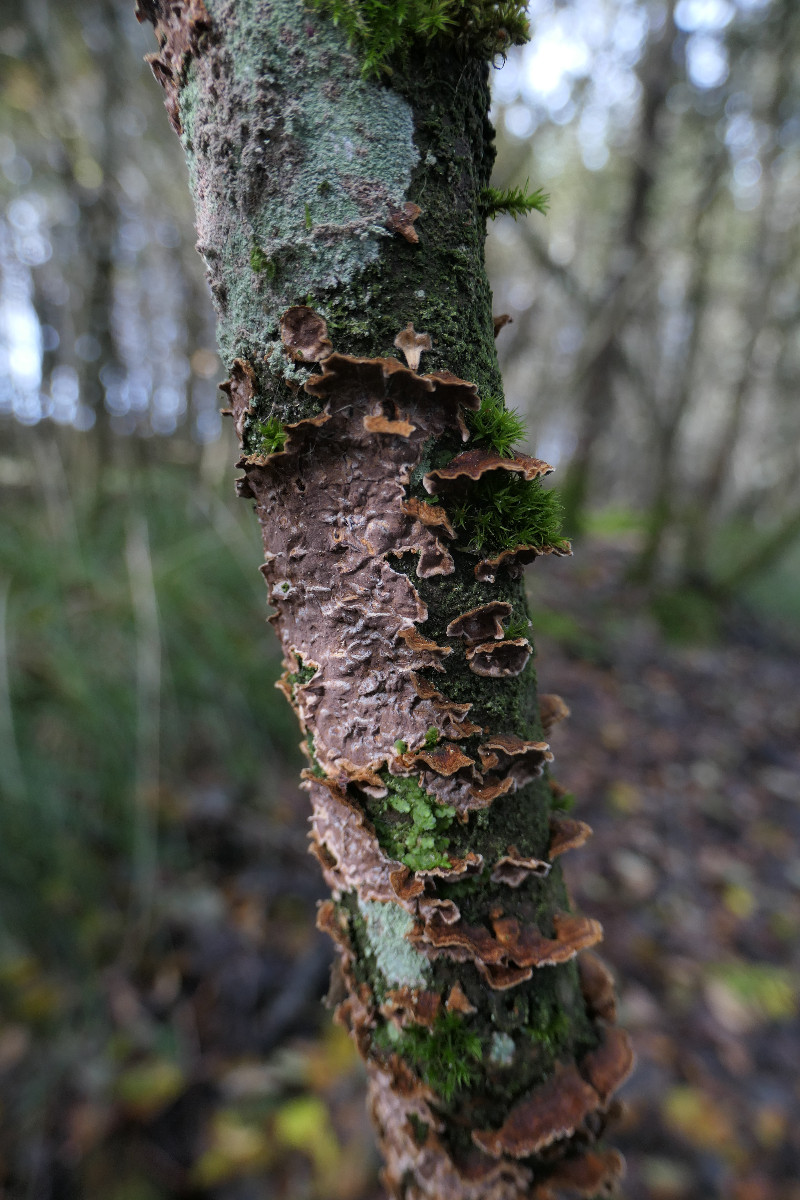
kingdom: Fungi
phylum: Basidiomycota
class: Agaricomycetes
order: Hymenochaetales
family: Hymenochaetaceae
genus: Hydnoporia
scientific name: Hydnoporia tabacina
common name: tobaksbrun ruslædersvamp
